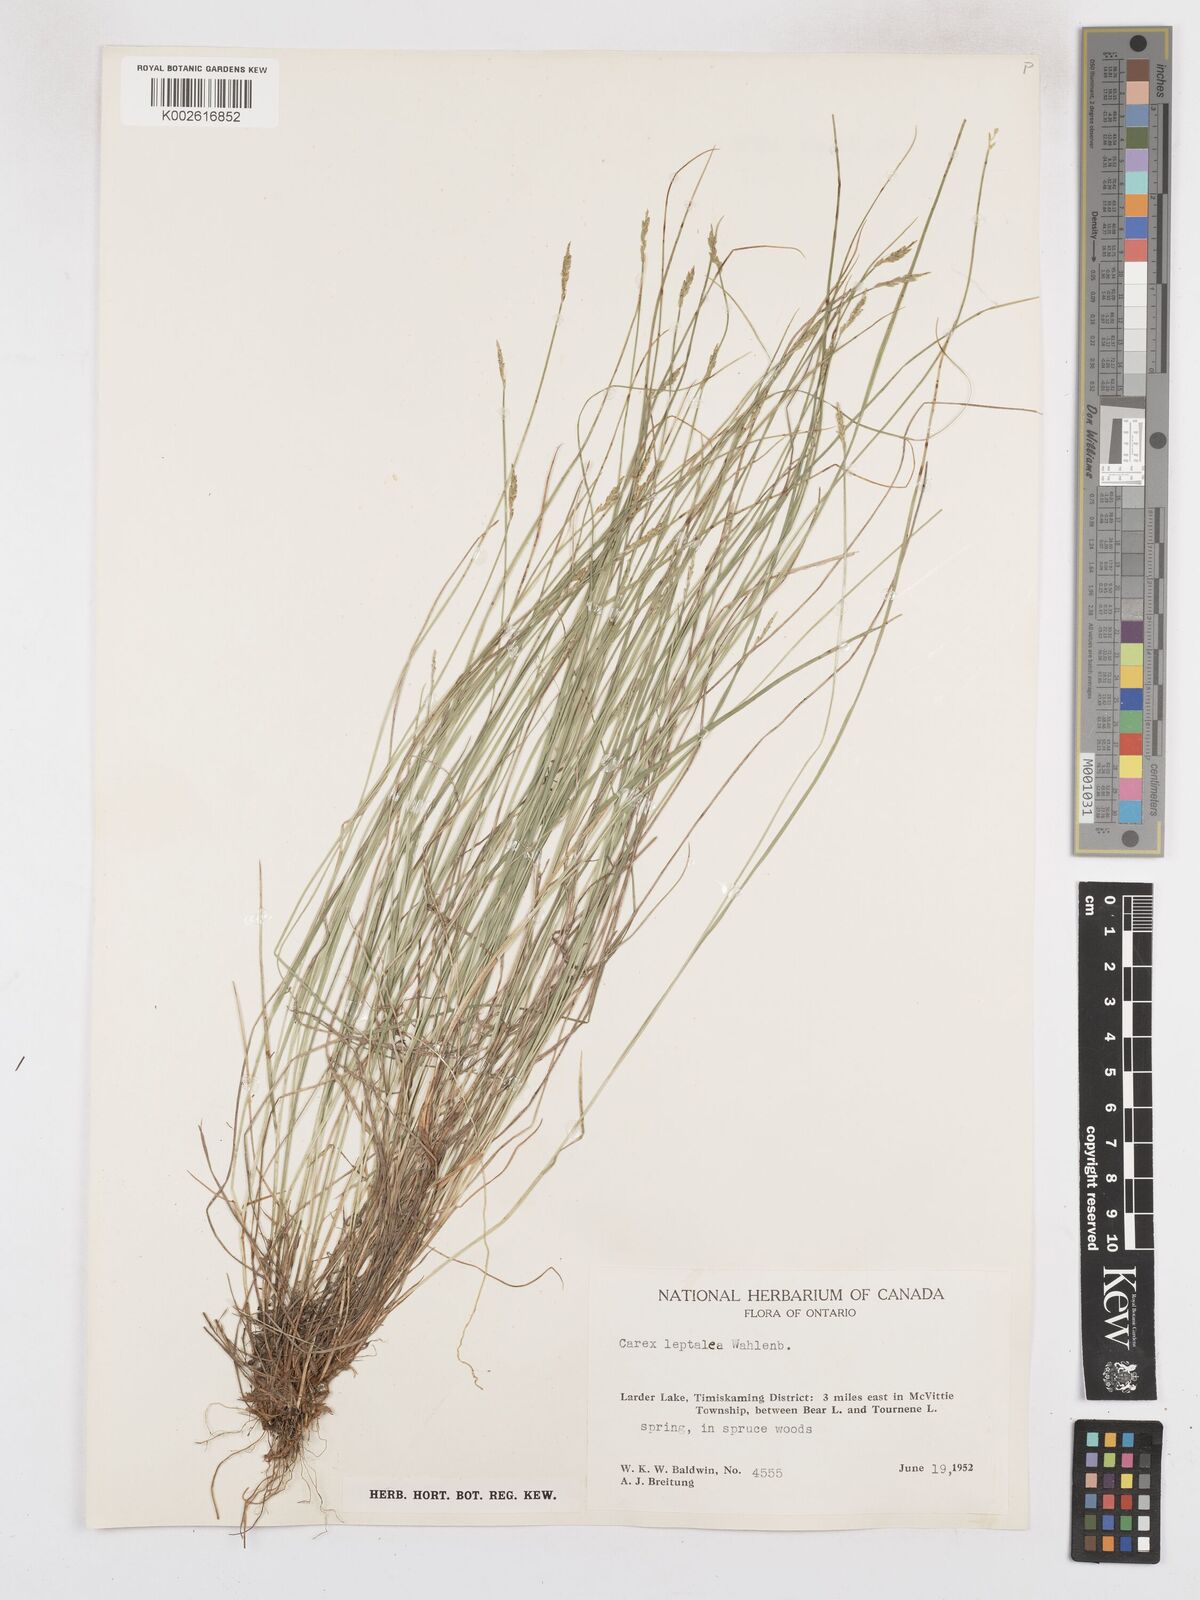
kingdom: Plantae
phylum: Tracheophyta
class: Liliopsida
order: Poales
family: Cyperaceae
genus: Carex
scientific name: Carex leptalea
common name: Bristly-stalked sedge
